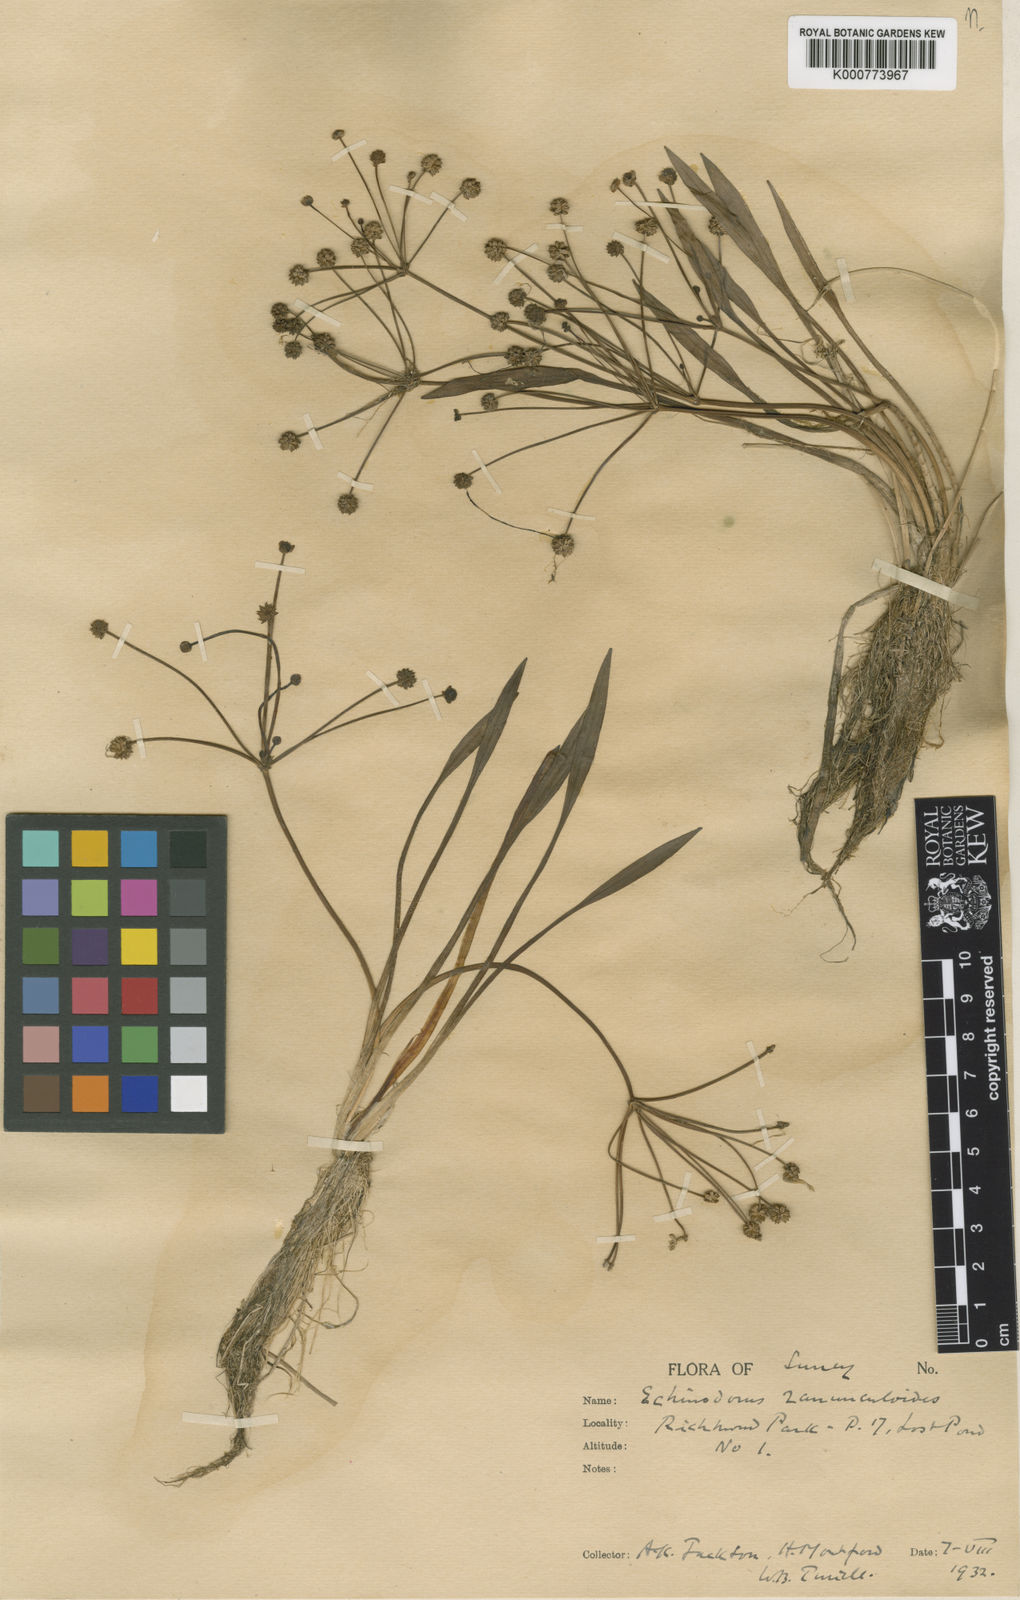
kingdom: Plantae
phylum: Tracheophyta
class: Liliopsida
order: Alismatales
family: Alismataceae
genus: Baldellia
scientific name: Baldellia ranunculoides
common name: Lesser water-plantain
